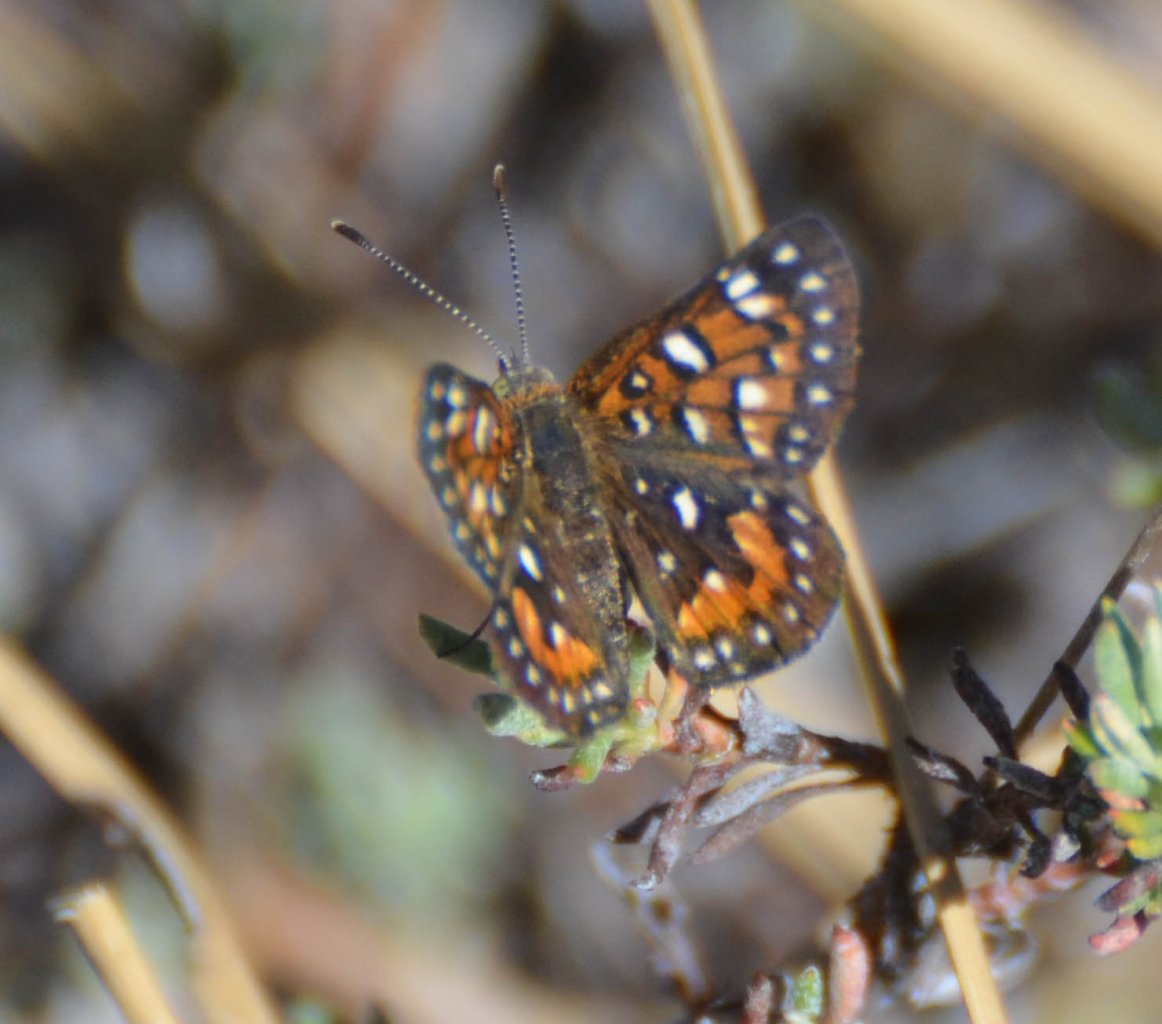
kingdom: Animalia
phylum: Arthropoda
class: Insecta
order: Lepidoptera
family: Riodinidae
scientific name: Riodinidae
